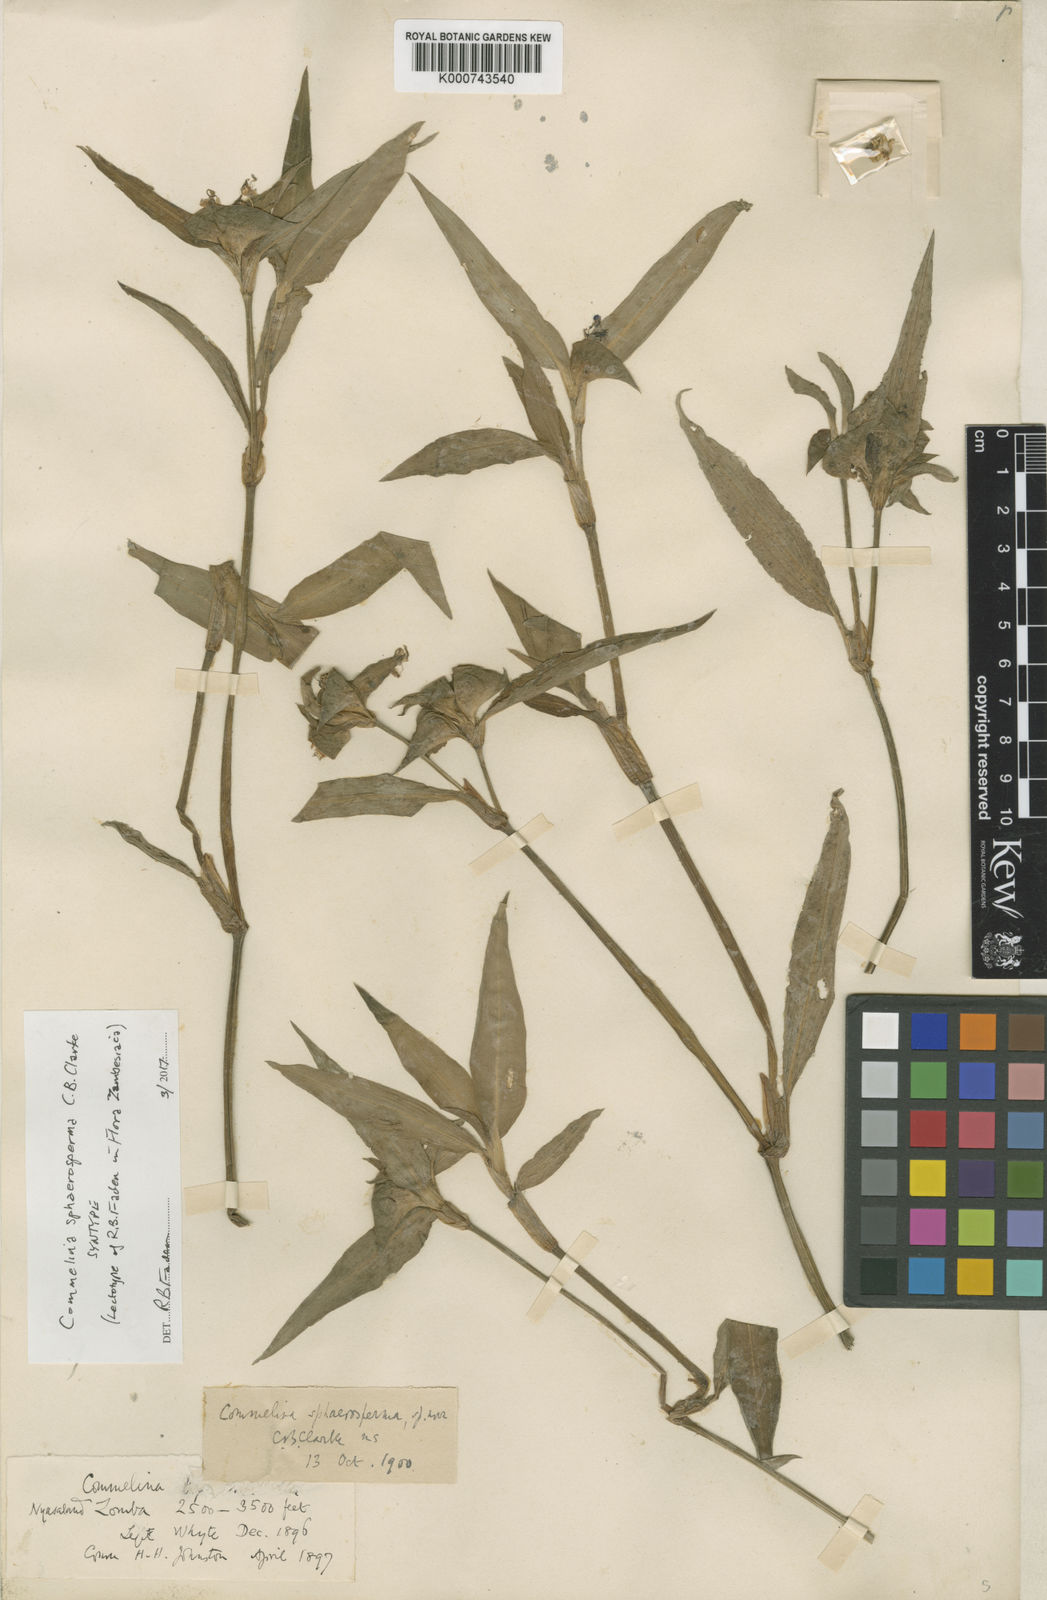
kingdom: Plantae
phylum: Tracheophyta
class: Liliopsida
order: Commelinales
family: Commelinaceae
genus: Commelina
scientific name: Commelina erecta
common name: Blousel blommetjie
